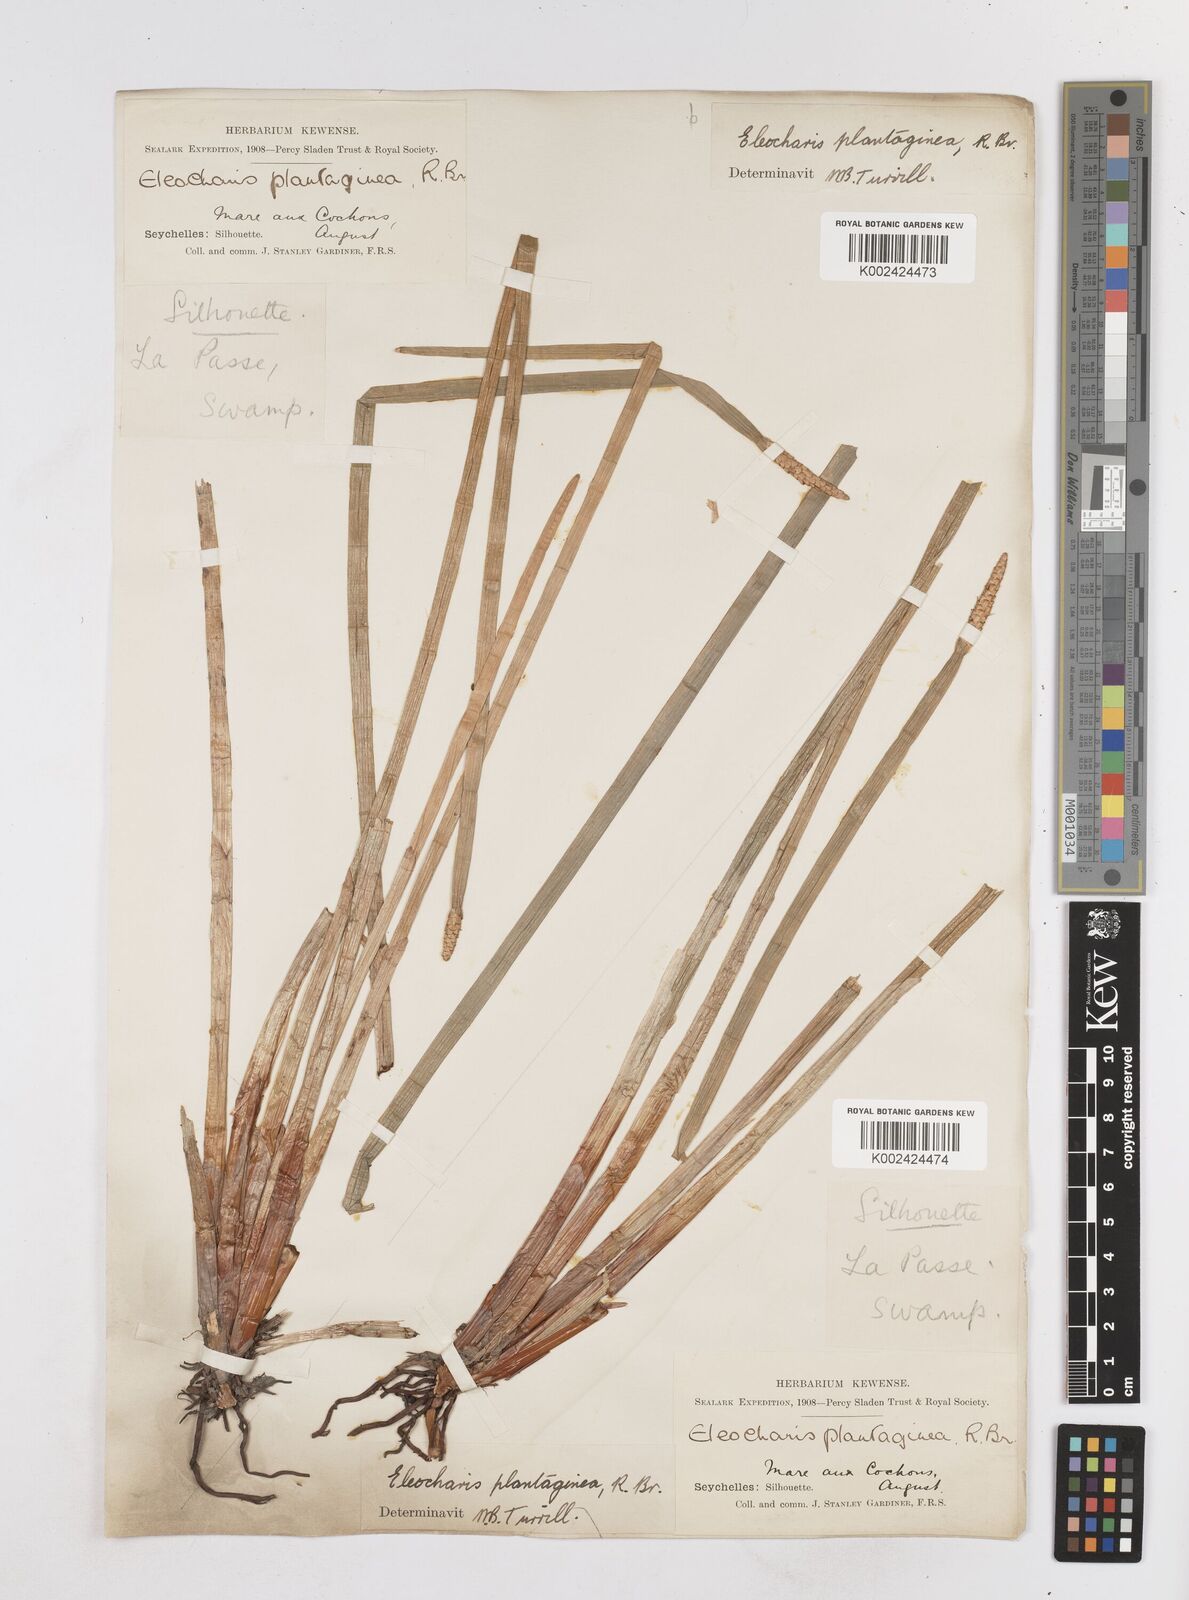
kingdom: Plantae
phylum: Tracheophyta
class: Liliopsida
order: Poales
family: Cyperaceae
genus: Eleocharis
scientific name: Eleocharis dulcis
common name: Chinese water chestnut
